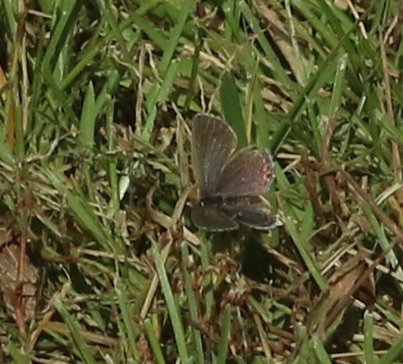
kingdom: Animalia
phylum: Arthropoda
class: Insecta
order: Lepidoptera
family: Lycaenidae
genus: Elkalyce
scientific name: Elkalyce comyntas
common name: Eastern Tailed-Blue
